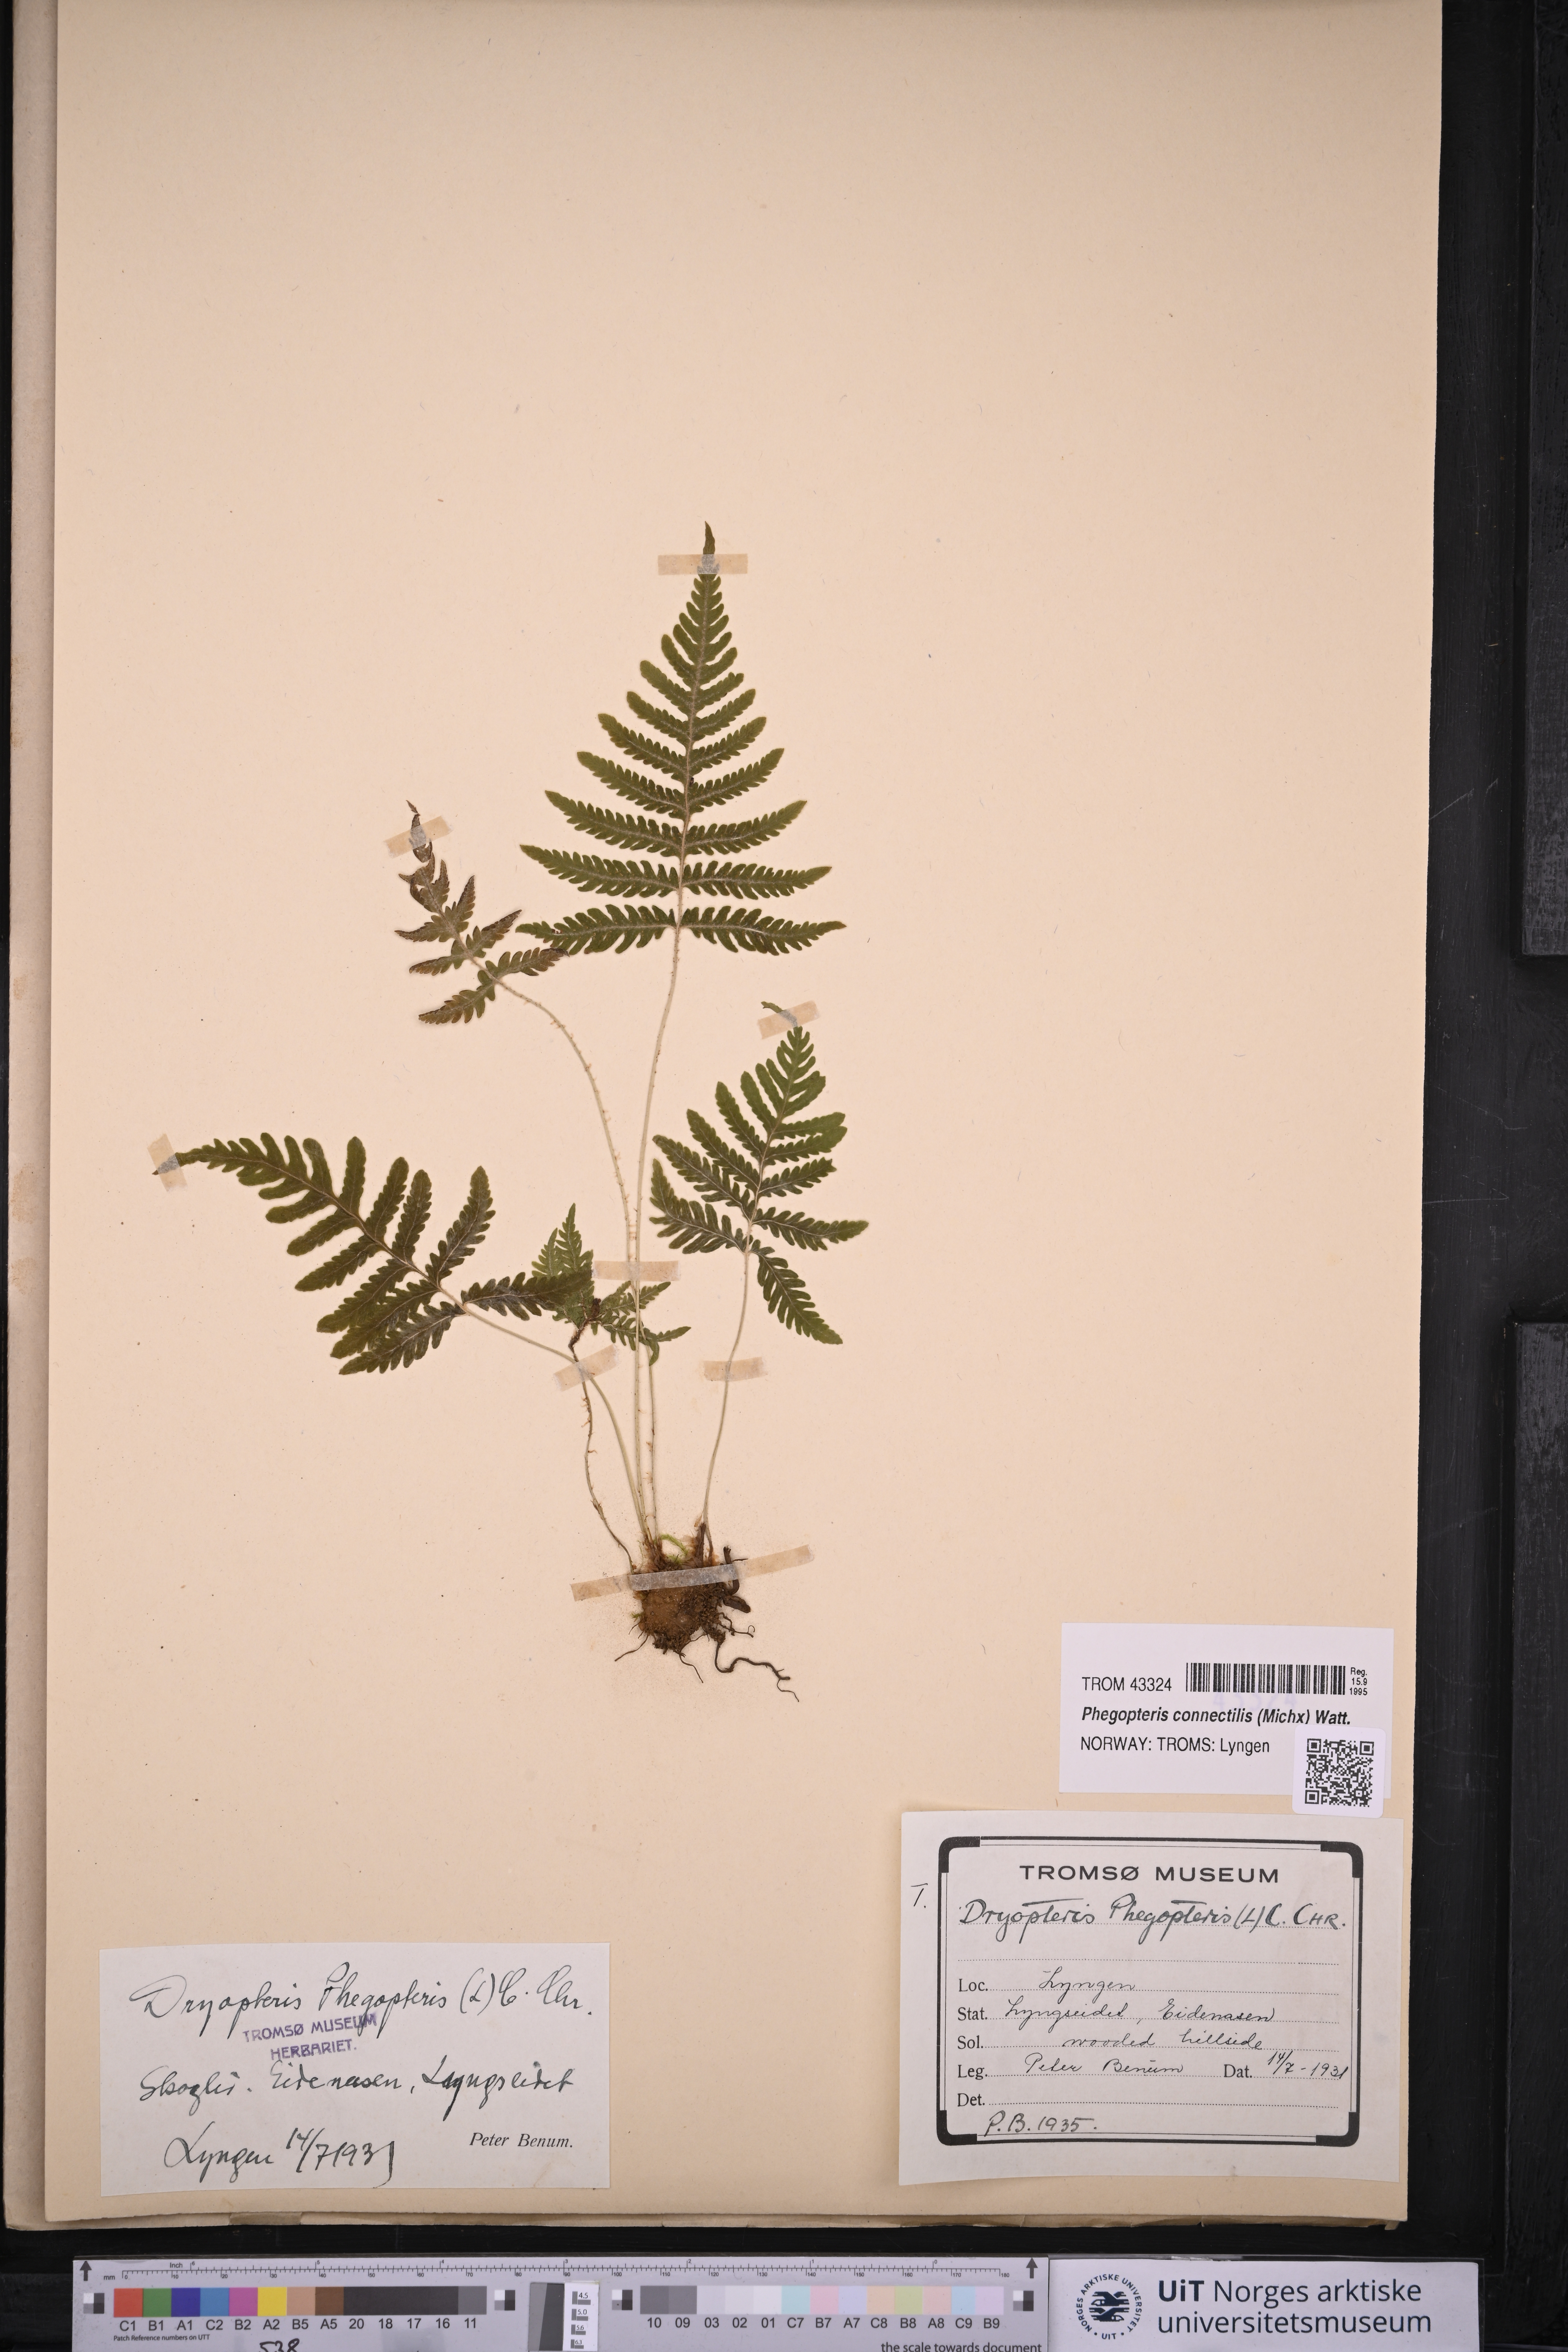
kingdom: Plantae
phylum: Tracheophyta
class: Polypodiopsida
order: Polypodiales
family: Thelypteridaceae
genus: Phegopteris
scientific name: Phegopteris connectilis
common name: Beech fern
